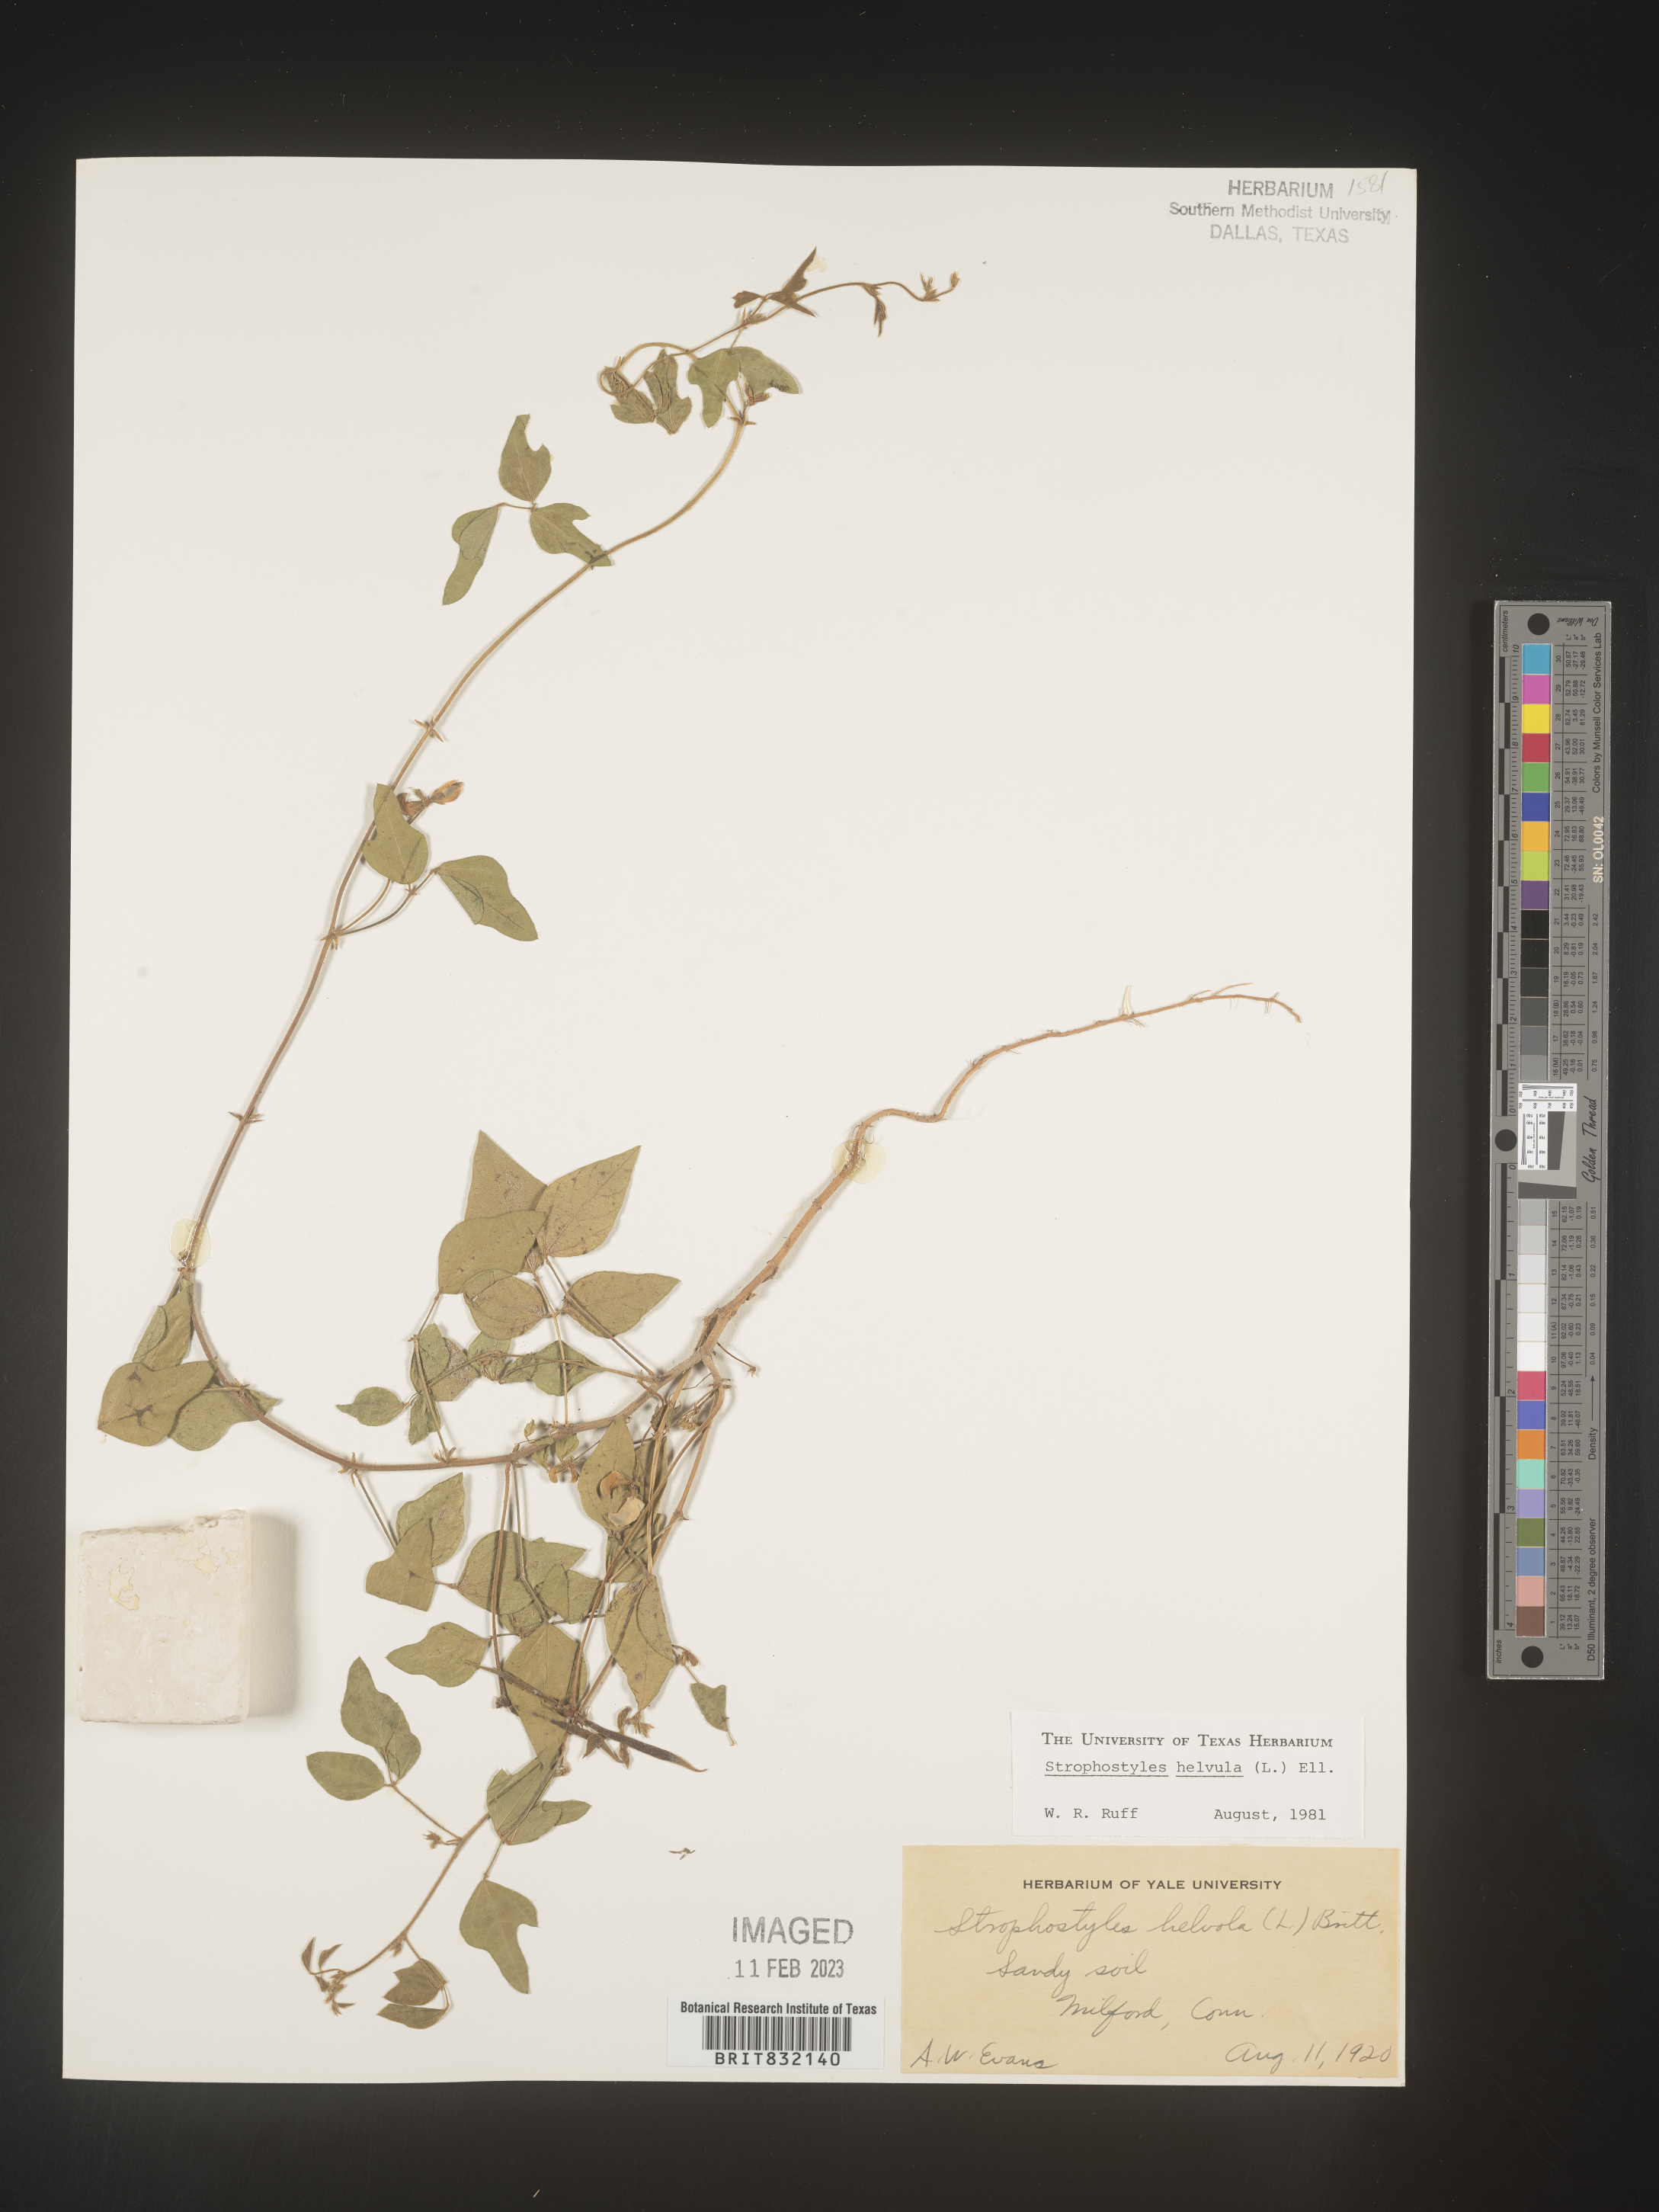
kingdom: Plantae
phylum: Tracheophyta
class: Magnoliopsida
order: Fabales
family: Fabaceae
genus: Strophostyles
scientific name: Strophostyles helvola
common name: Trailing wild bean
